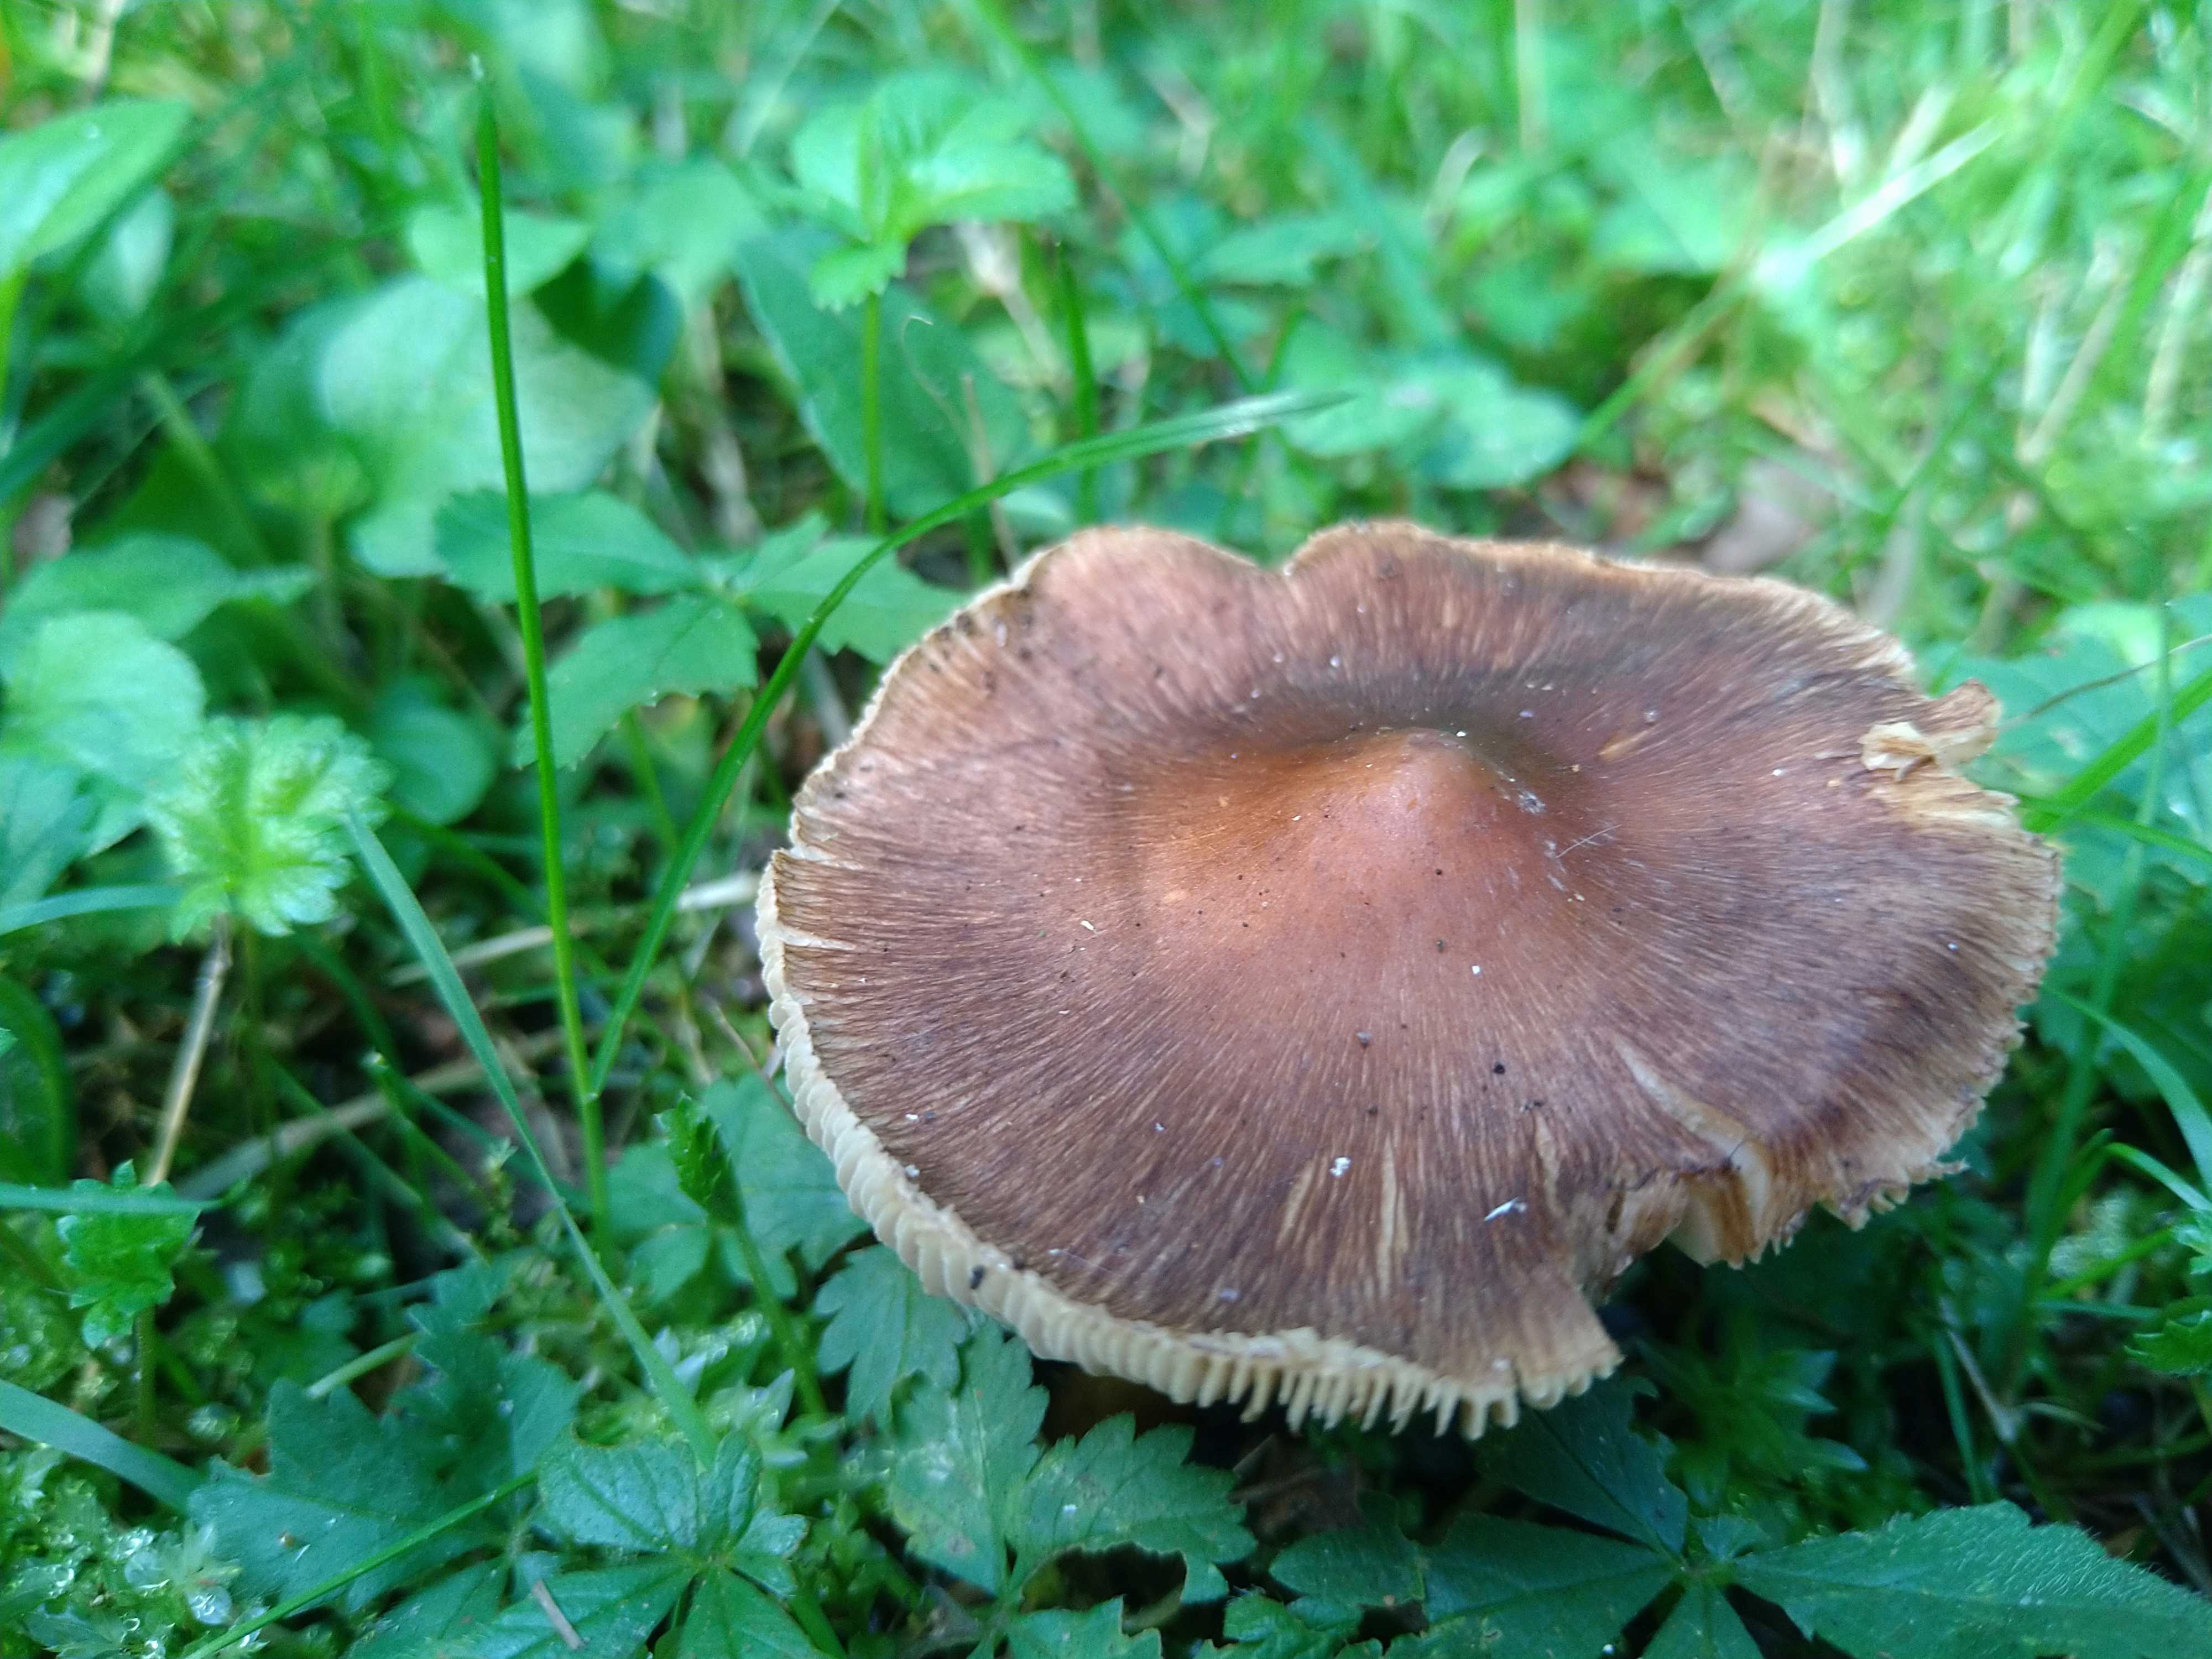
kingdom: Fungi
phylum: Basidiomycota
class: Agaricomycetes
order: Agaricales
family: Inocybaceae
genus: Inocybe
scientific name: Inocybe
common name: trævlhat
